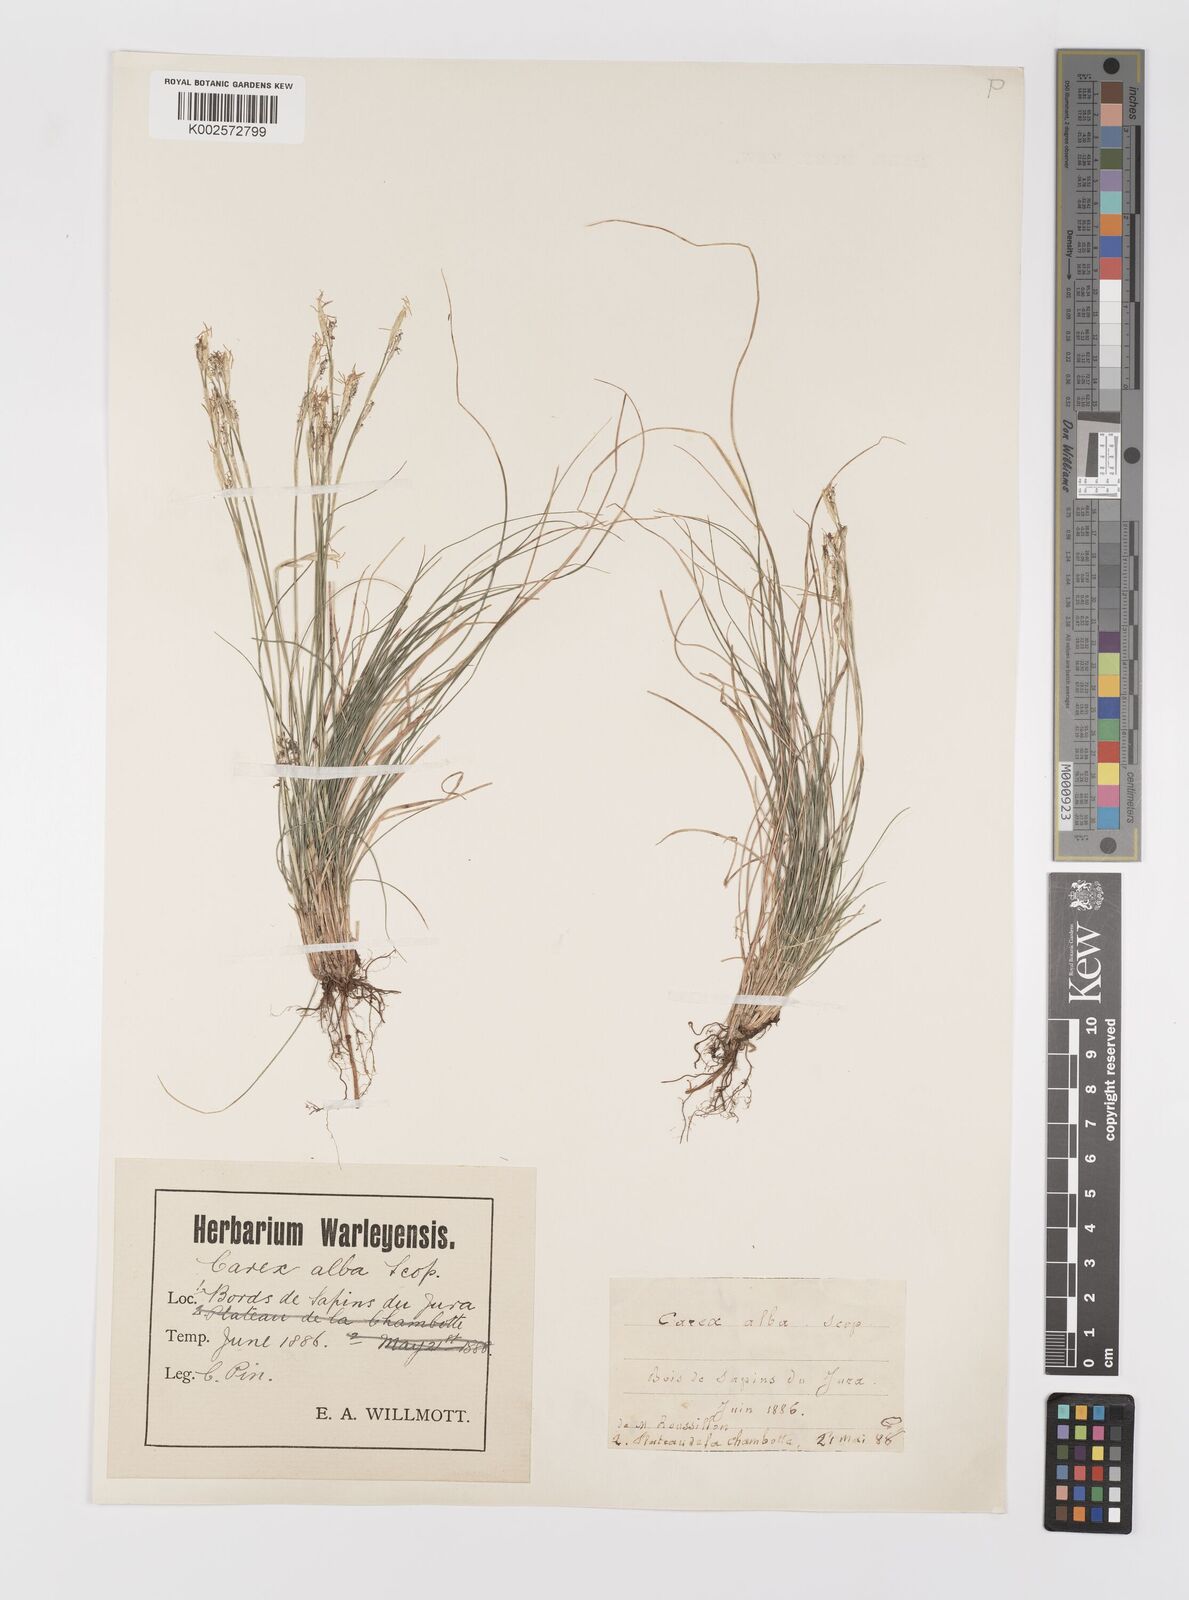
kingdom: Plantae
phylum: Tracheophyta
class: Liliopsida
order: Poales
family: Cyperaceae
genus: Carex
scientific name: Carex alba
